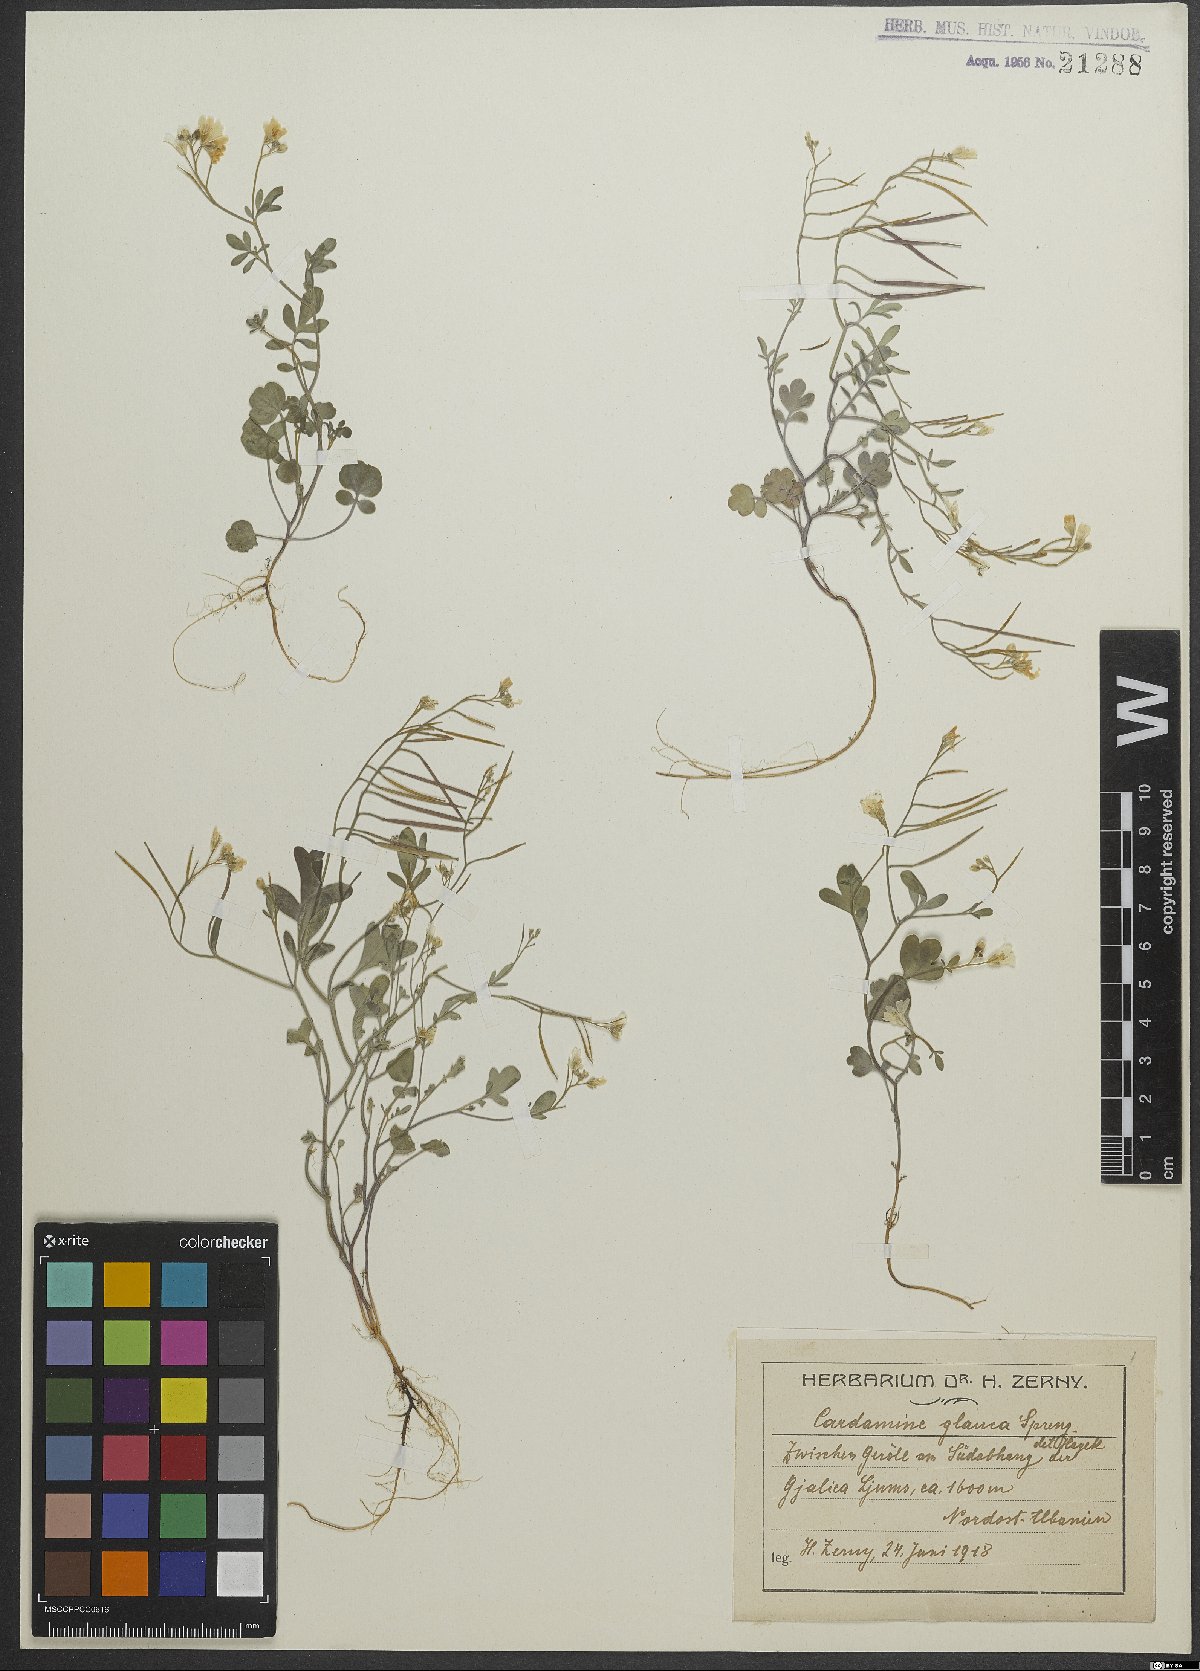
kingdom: Plantae
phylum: Tracheophyta
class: Magnoliopsida
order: Brassicales
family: Brassicaceae
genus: Cardamine
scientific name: Cardamine glauca
